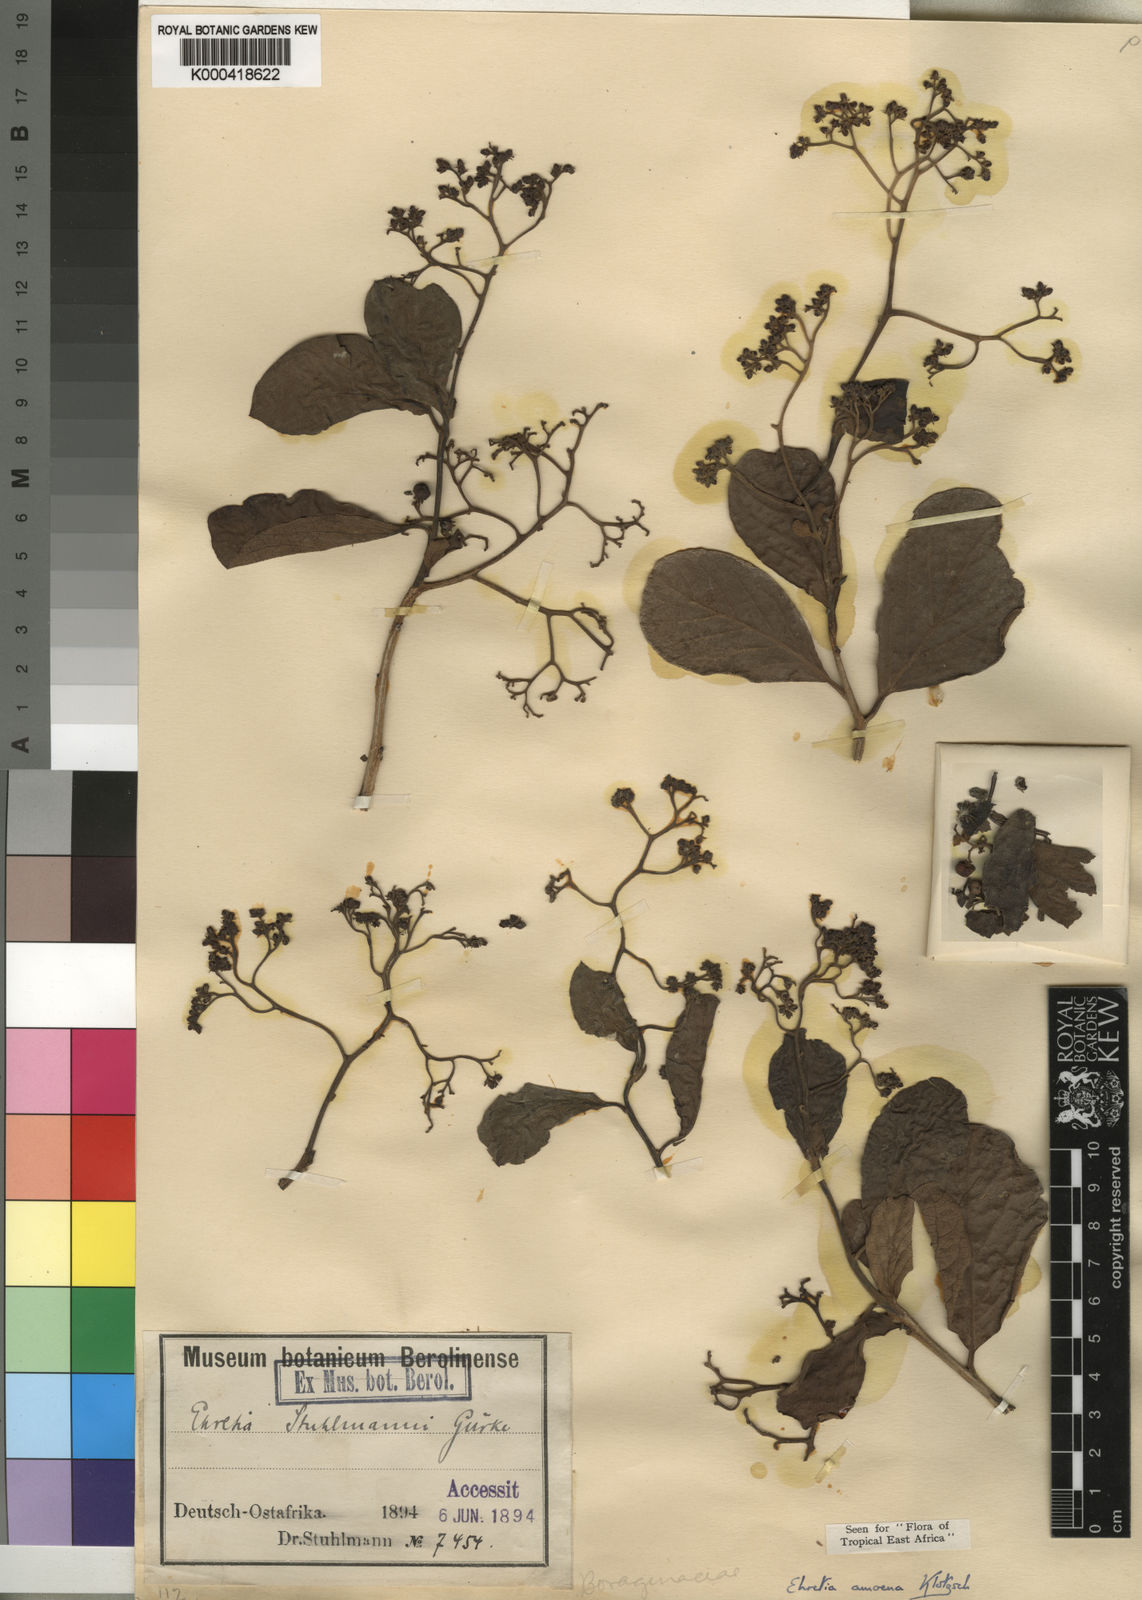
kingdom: Plantae
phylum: Tracheophyta
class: Magnoliopsida
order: Boraginales
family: Ehretiaceae
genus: Ehretia
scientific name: Ehretia amoena
